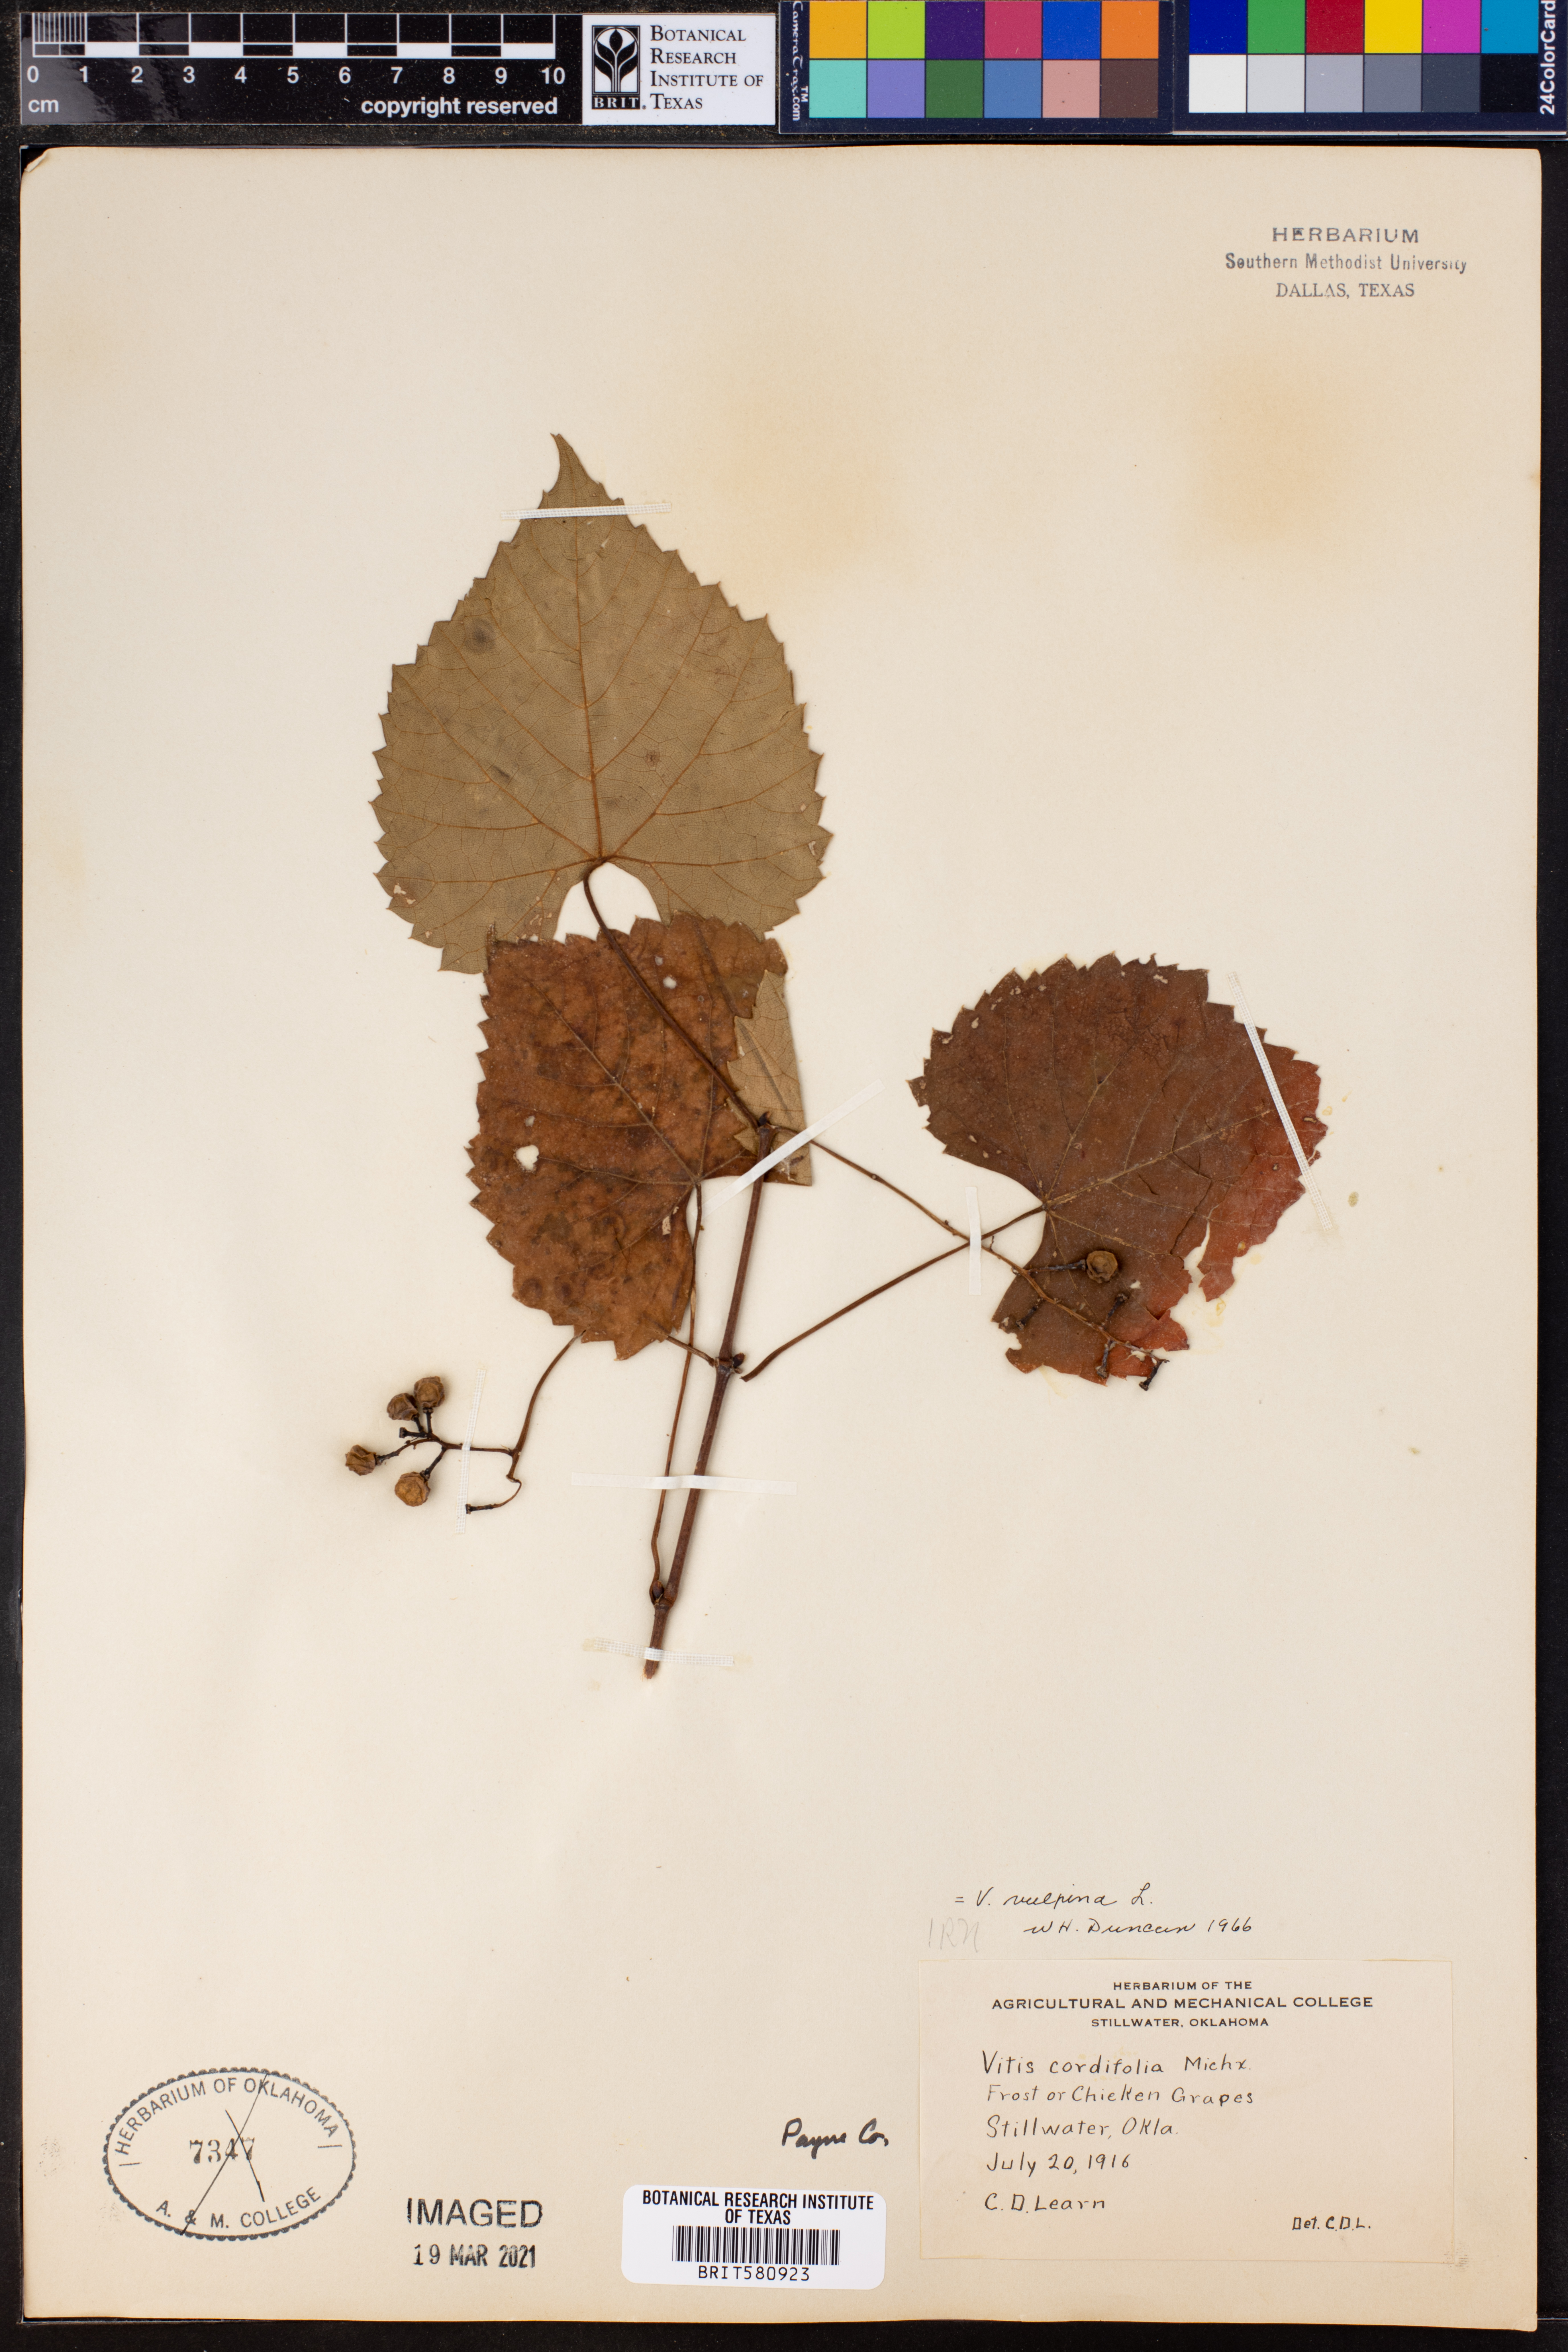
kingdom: Plantae
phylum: Tracheophyta
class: Magnoliopsida
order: Vitales
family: Vitaceae
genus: Vitis
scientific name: Vitis vulpina
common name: Frost grape
